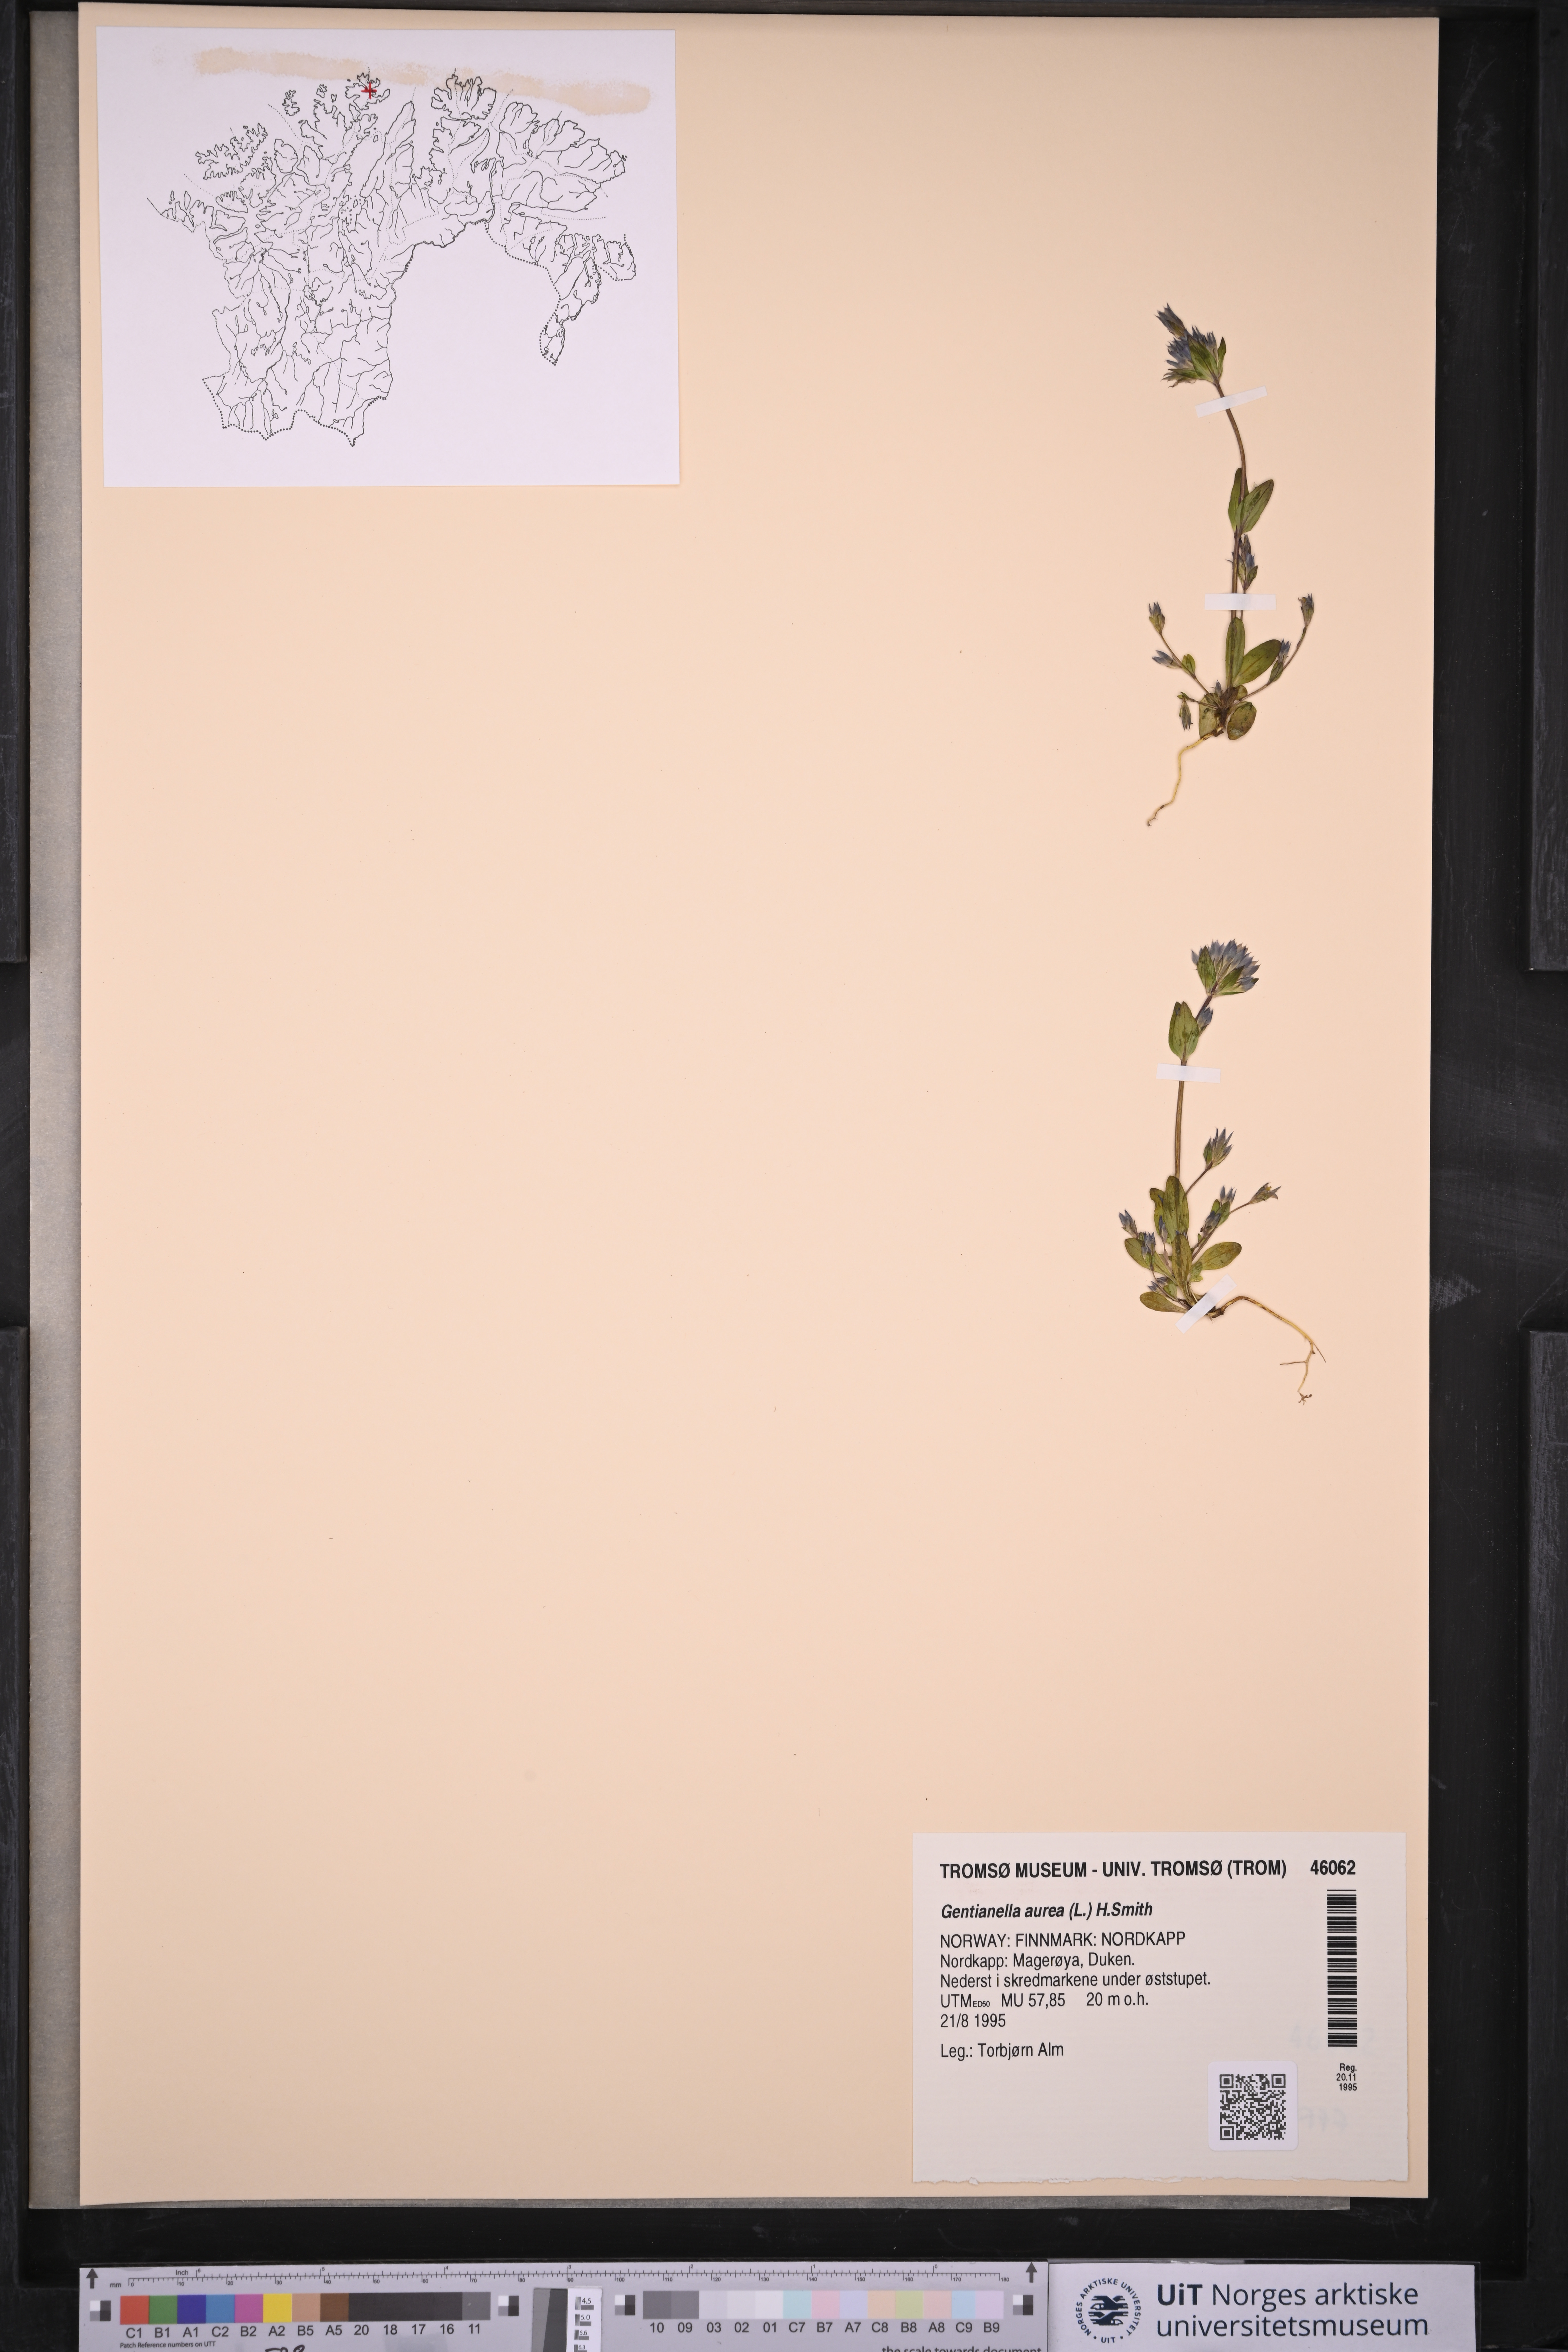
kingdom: Plantae
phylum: Tracheophyta
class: Magnoliopsida
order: Gentianales
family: Gentianaceae
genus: Gentianella
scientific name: Gentianella aurea
